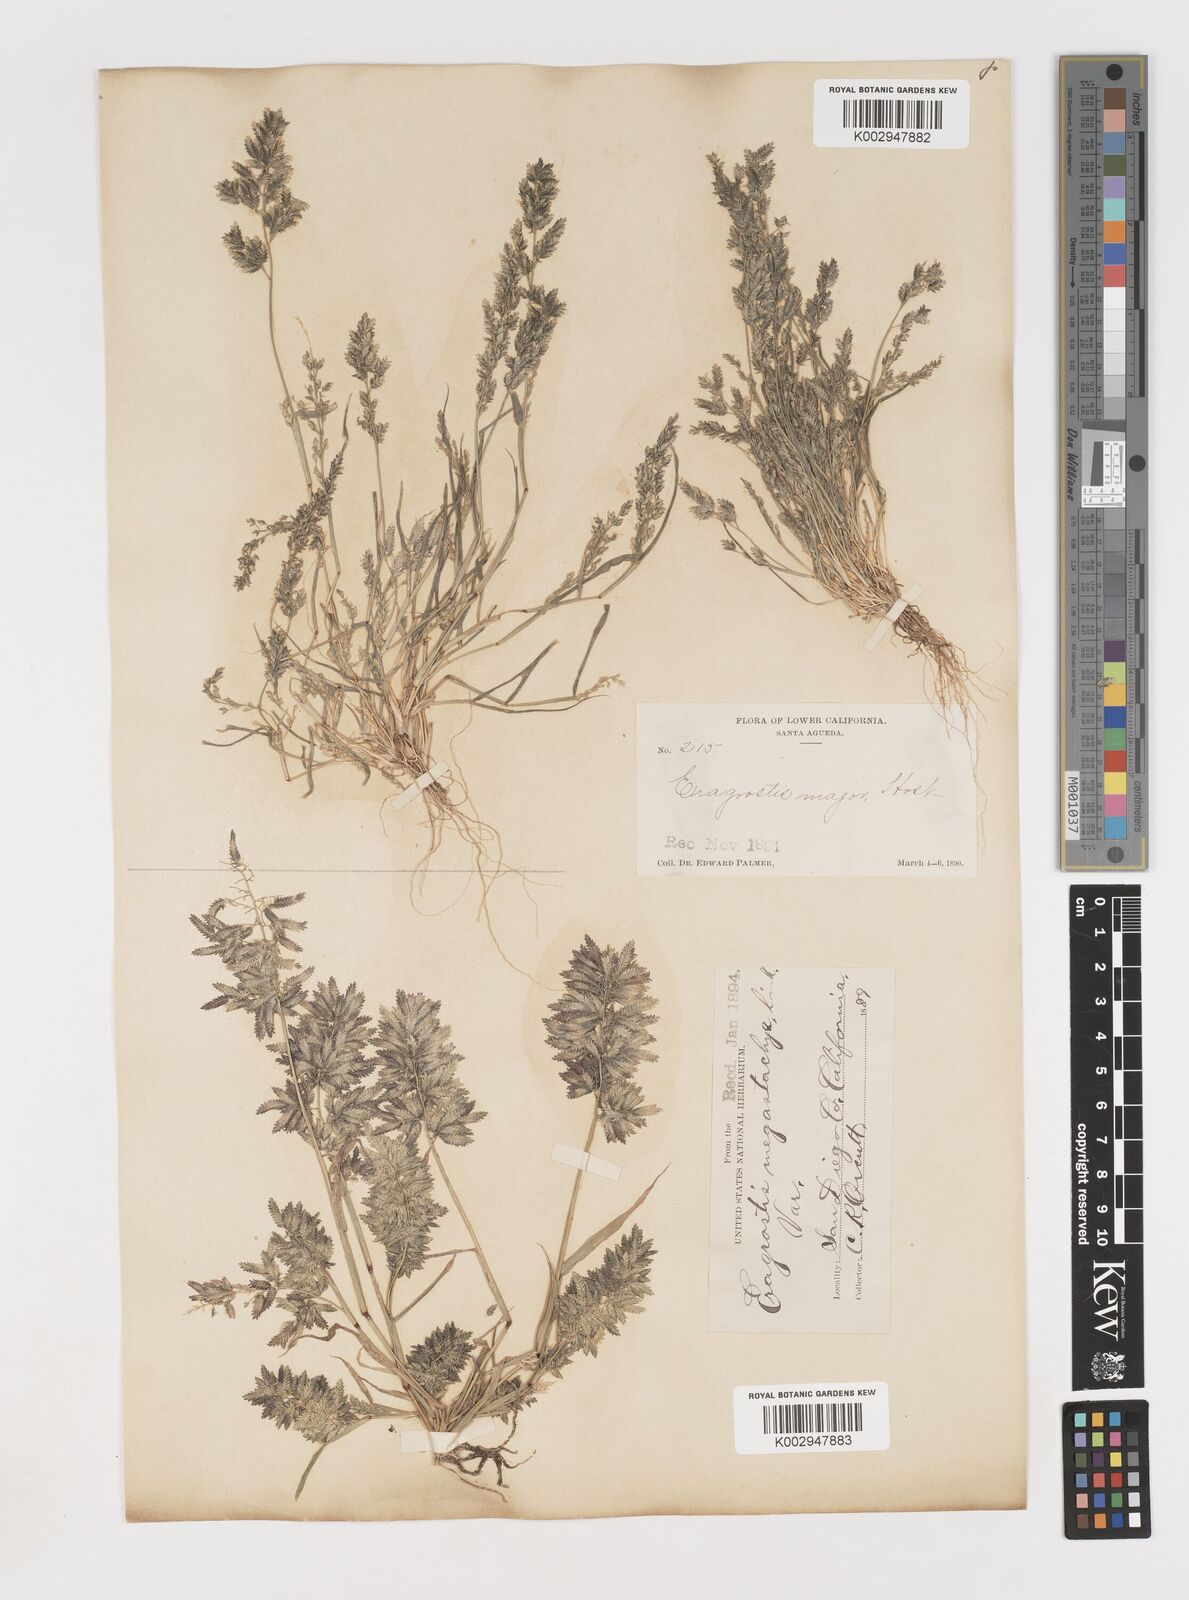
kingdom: Plantae
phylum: Tracheophyta
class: Liliopsida
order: Poales
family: Poaceae
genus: Eragrostis
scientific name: Eragrostis cilianensis
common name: Stinkgrass
